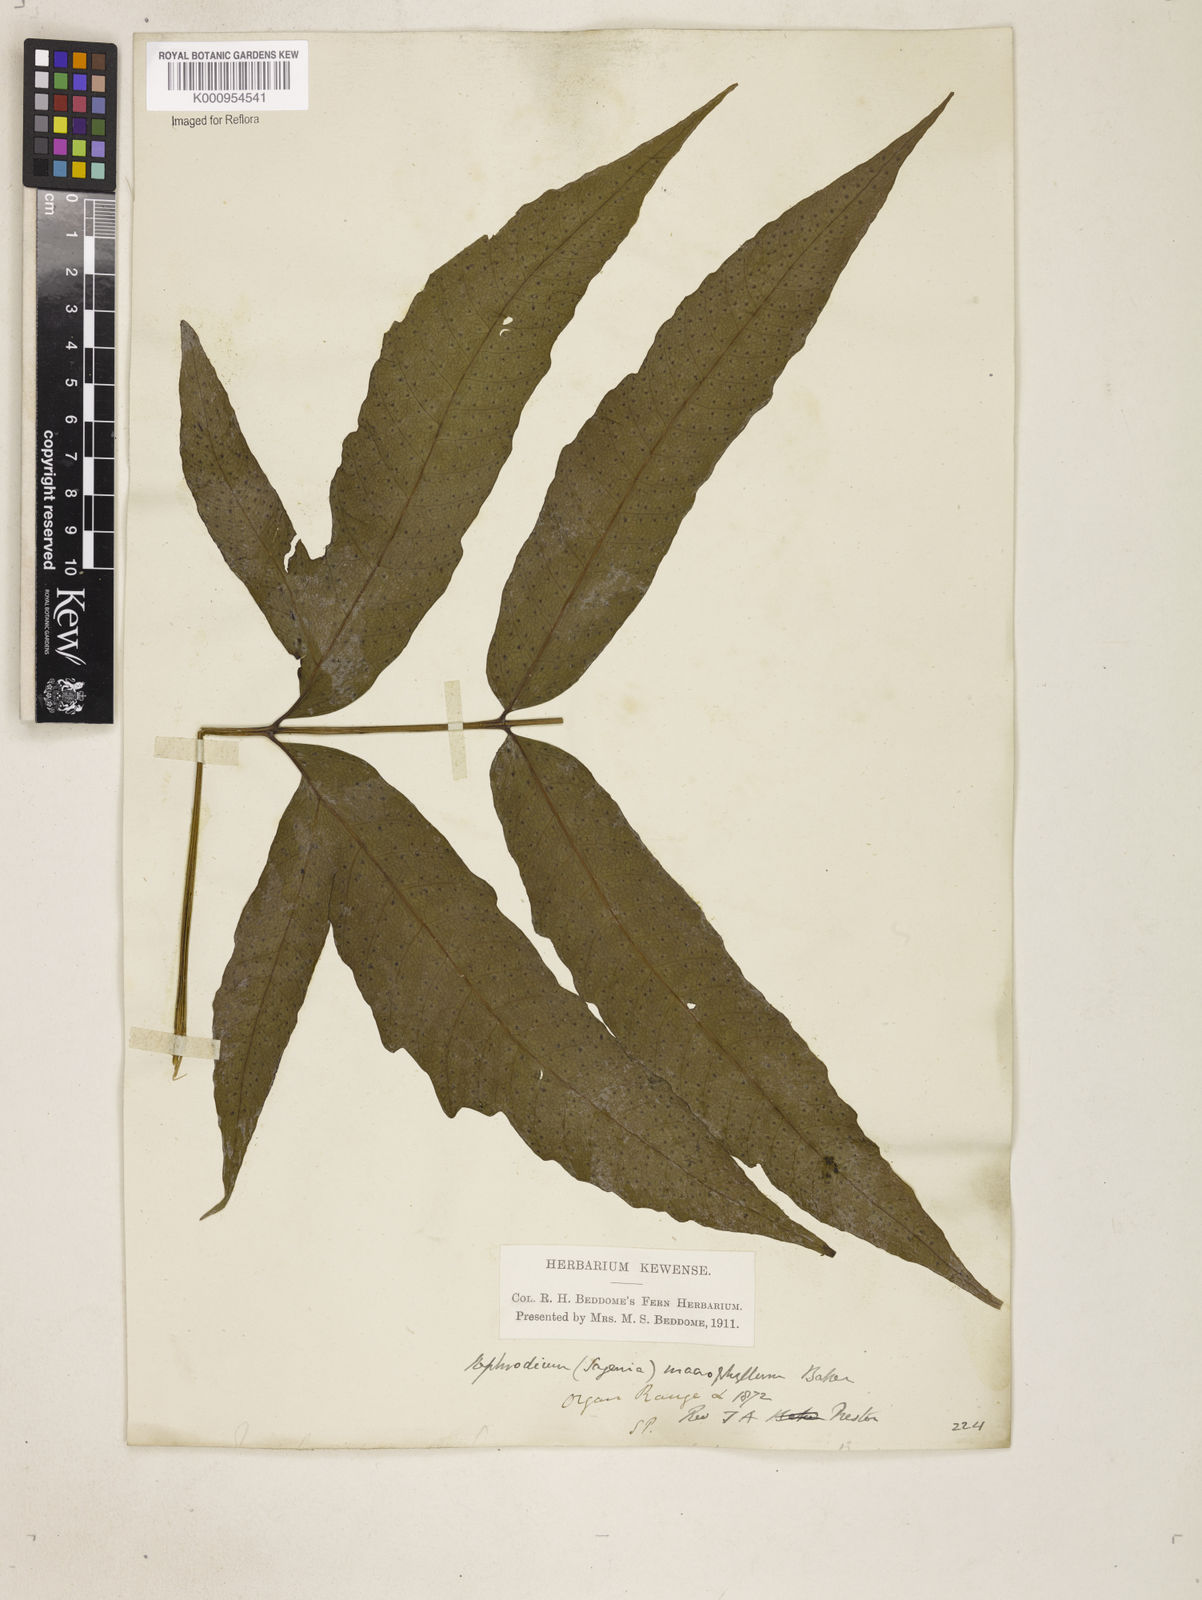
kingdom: Plantae
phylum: Tracheophyta
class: Polypodiopsida
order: Polypodiales
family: Tectariaceae
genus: Tectaria
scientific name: Tectaria incisa
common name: Incised halberd fern
